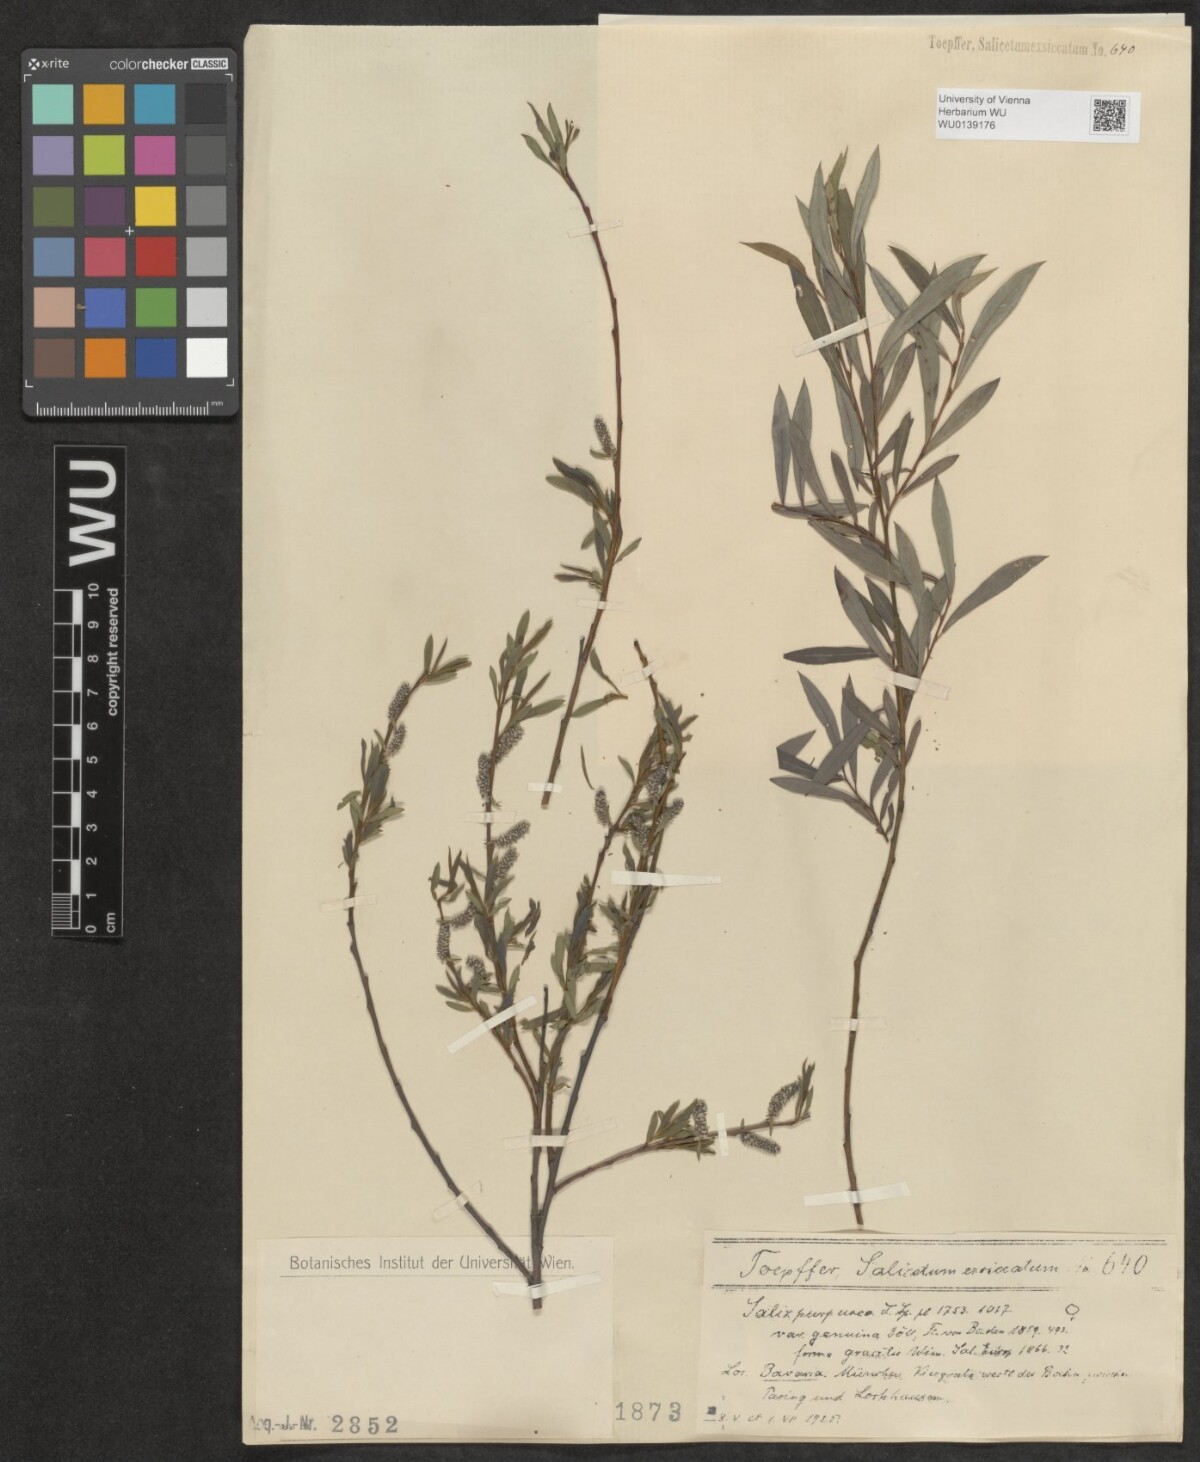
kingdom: Plantae
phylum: Tracheophyta
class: Magnoliopsida
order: Malpighiales
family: Salicaceae
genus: Salix
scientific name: Salix purpurea
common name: Purple willow
